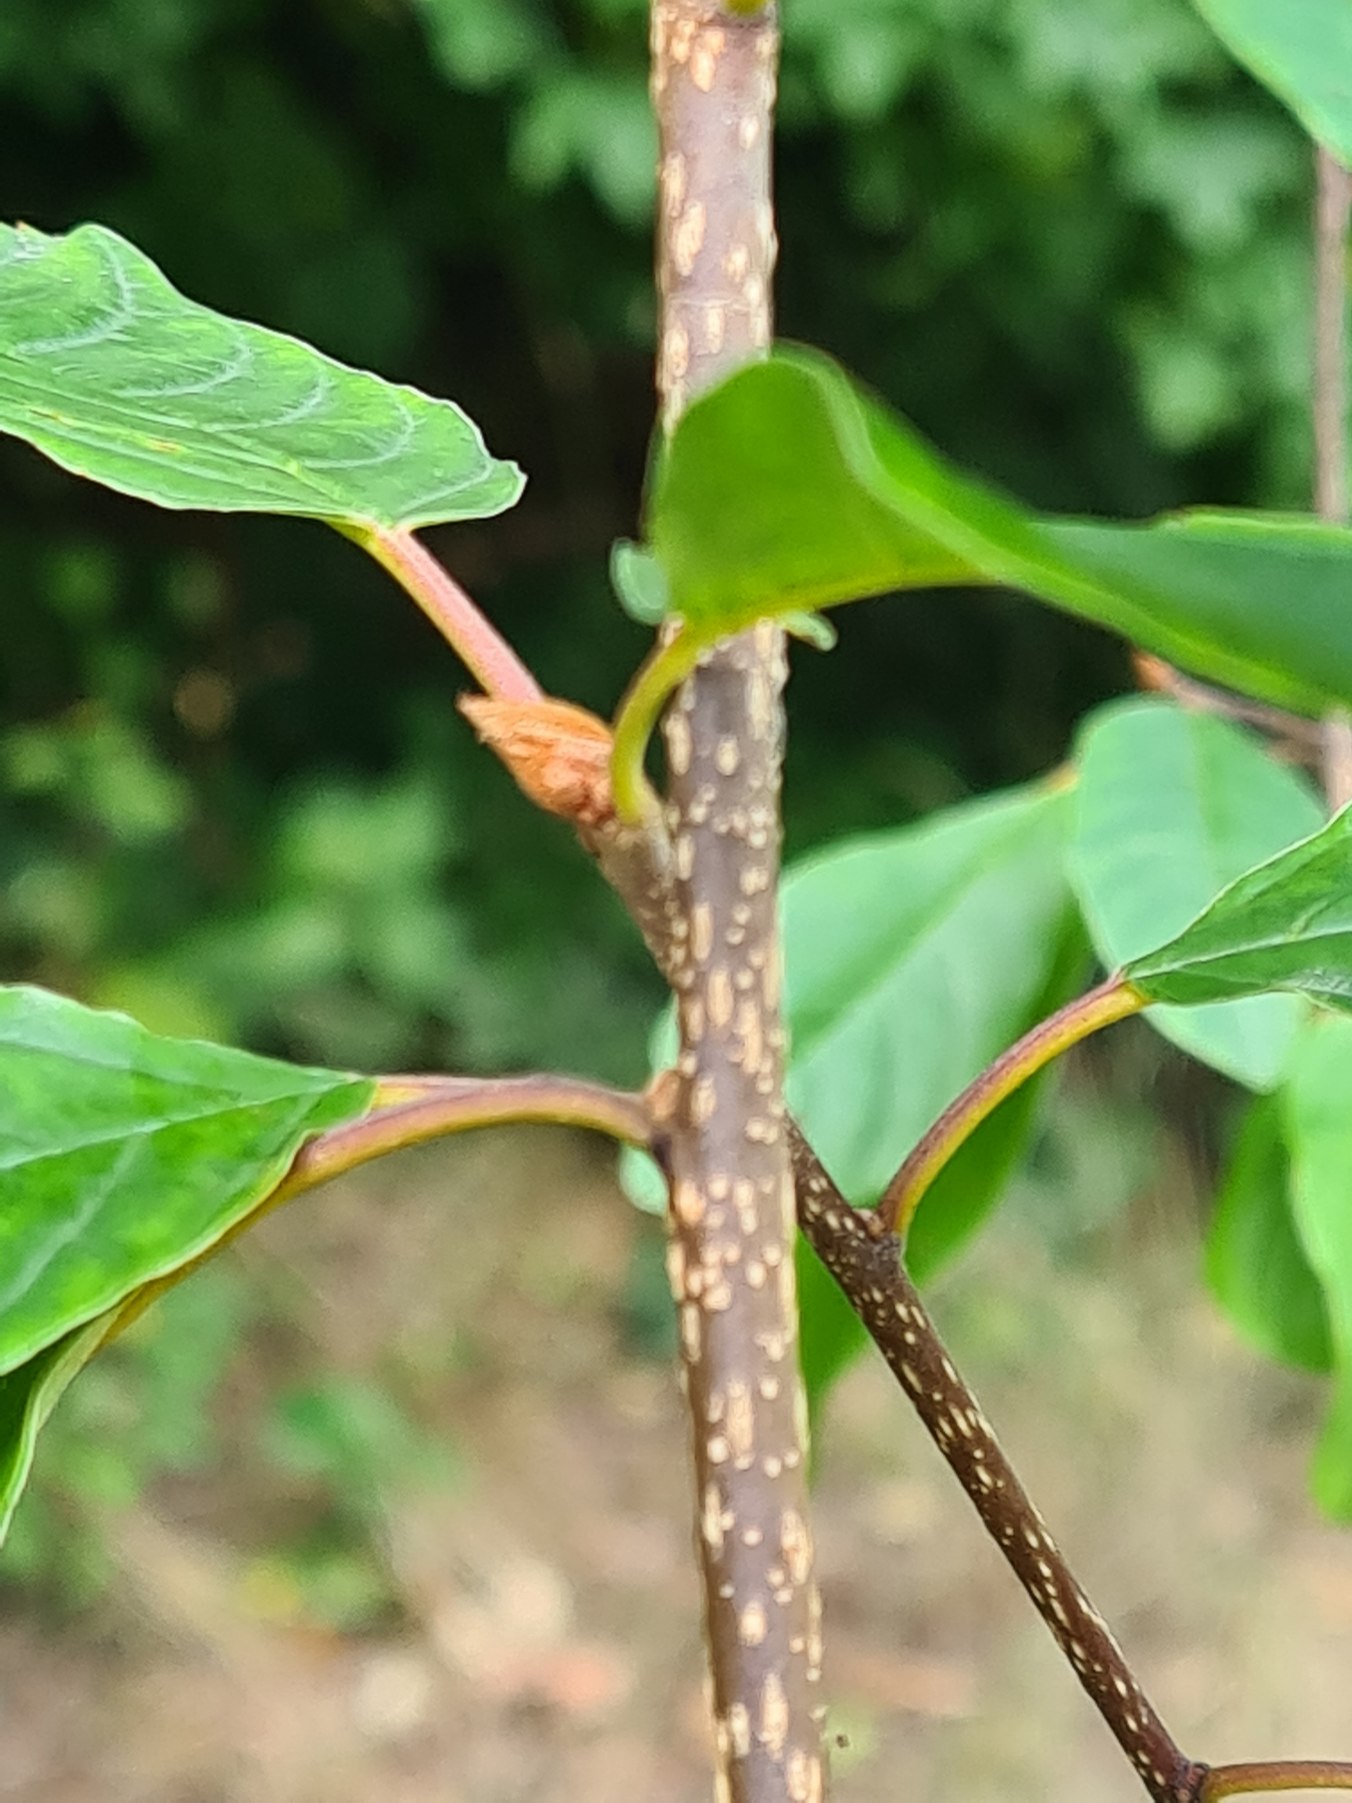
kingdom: Plantae
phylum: Tracheophyta
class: Magnoliopsida
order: Rosales
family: Rhamnaceae
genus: Frangula
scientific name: Frangula alnus
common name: Tørst
